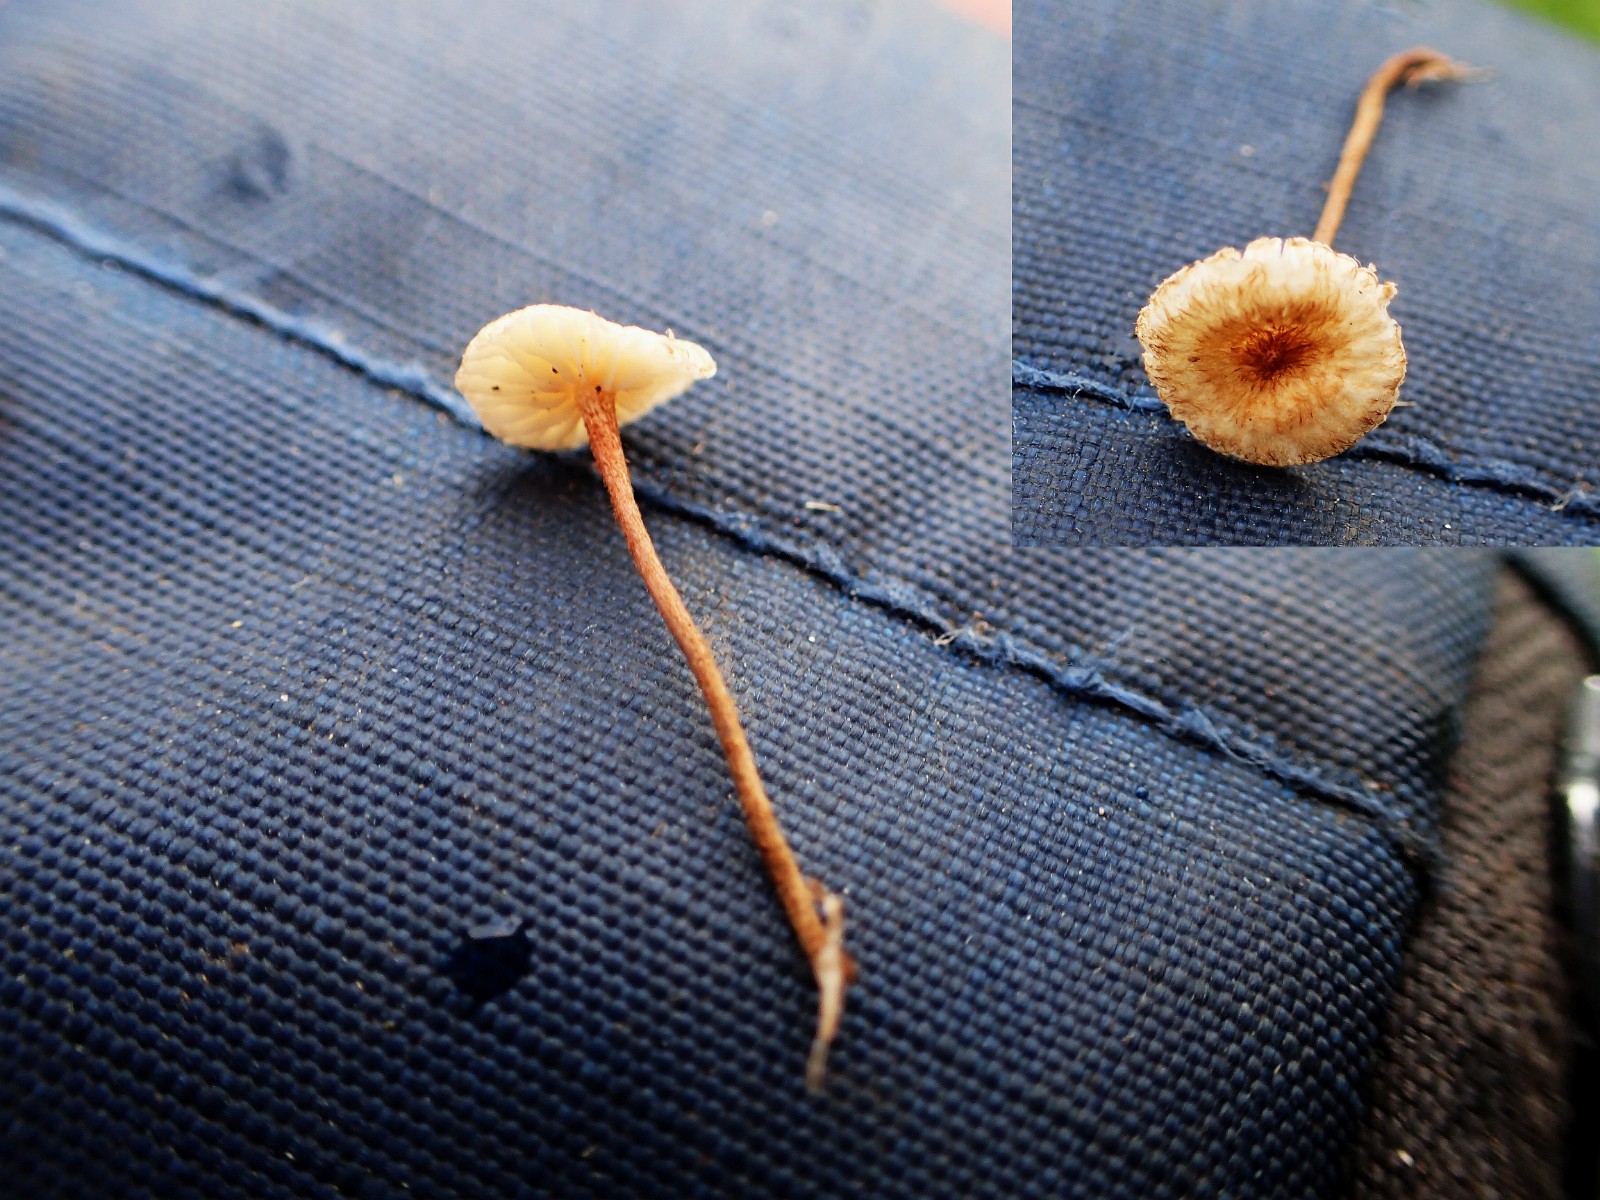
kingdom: Fungi
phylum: Basidiomycota
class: Agaricomycetes
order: Agaricales
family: Marasmiaceae
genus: Crinipellis
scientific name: Crinipellis scabella
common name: børstefod
